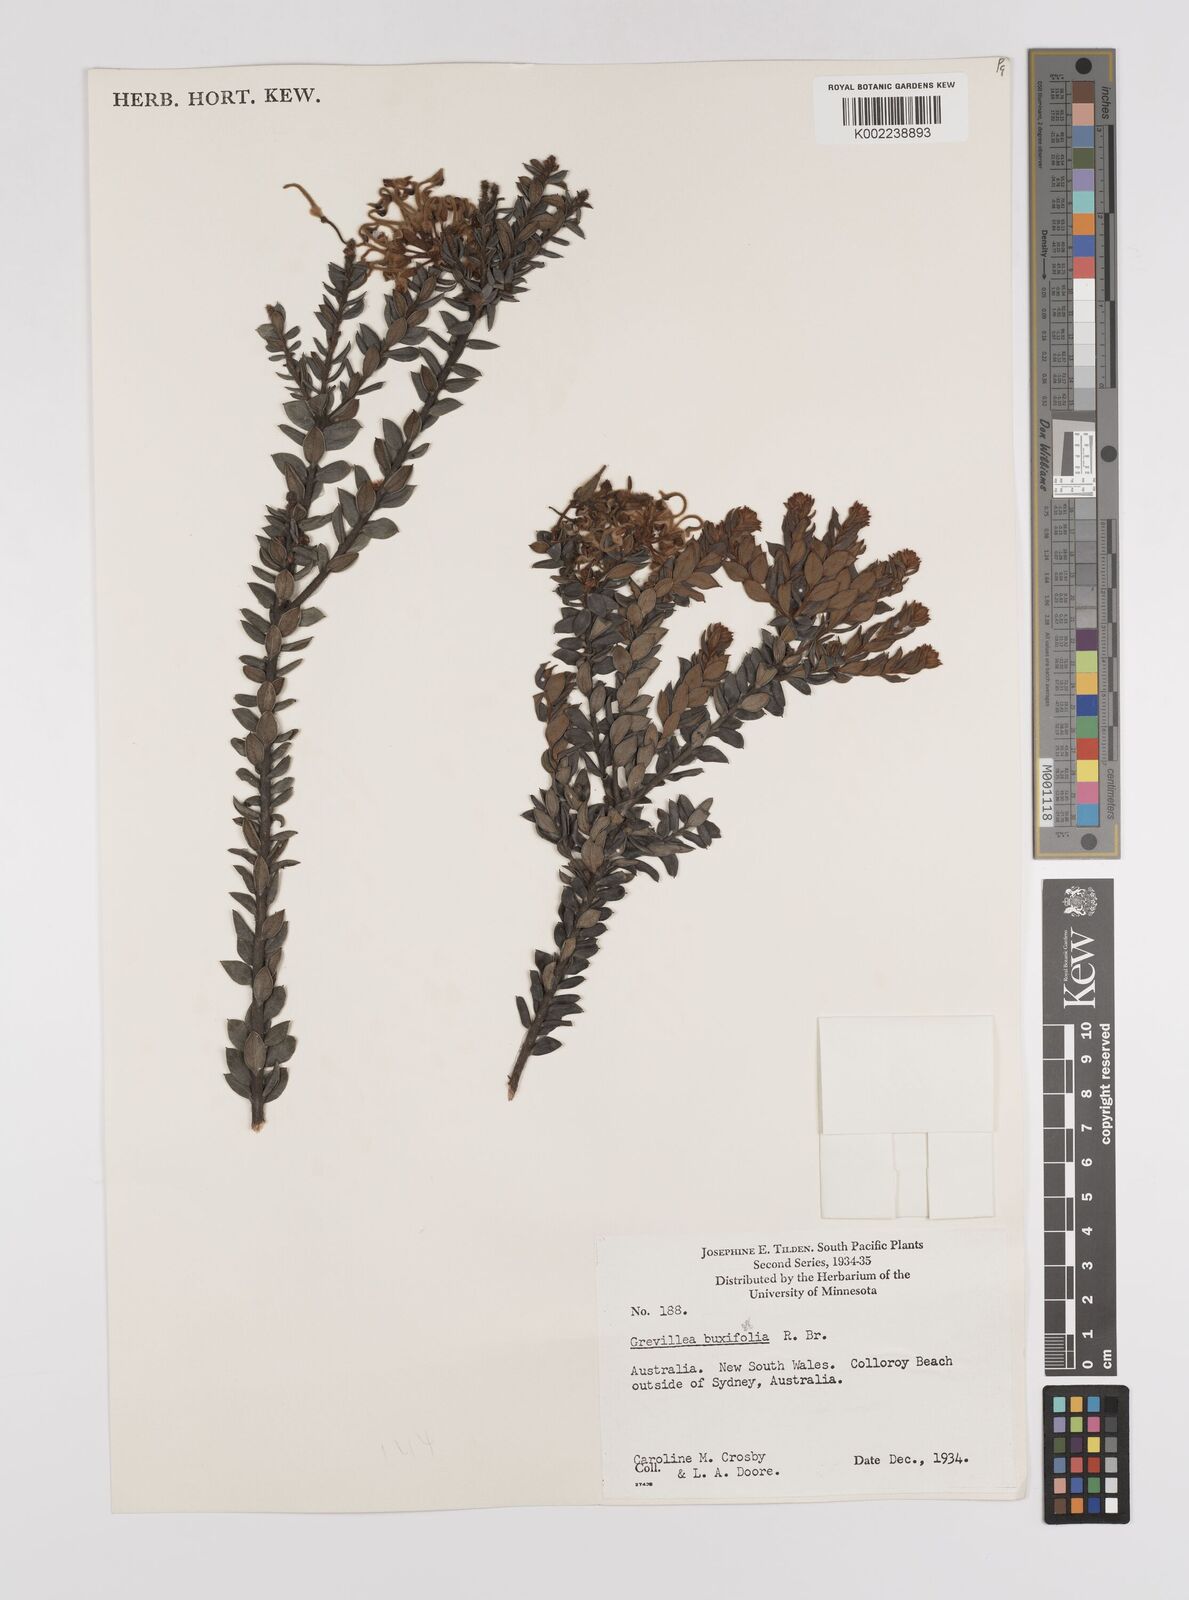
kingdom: Plantae
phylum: Tracheophyta
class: Magnoliopsida
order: Proteales
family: Proteaceae
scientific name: Proteaceae
